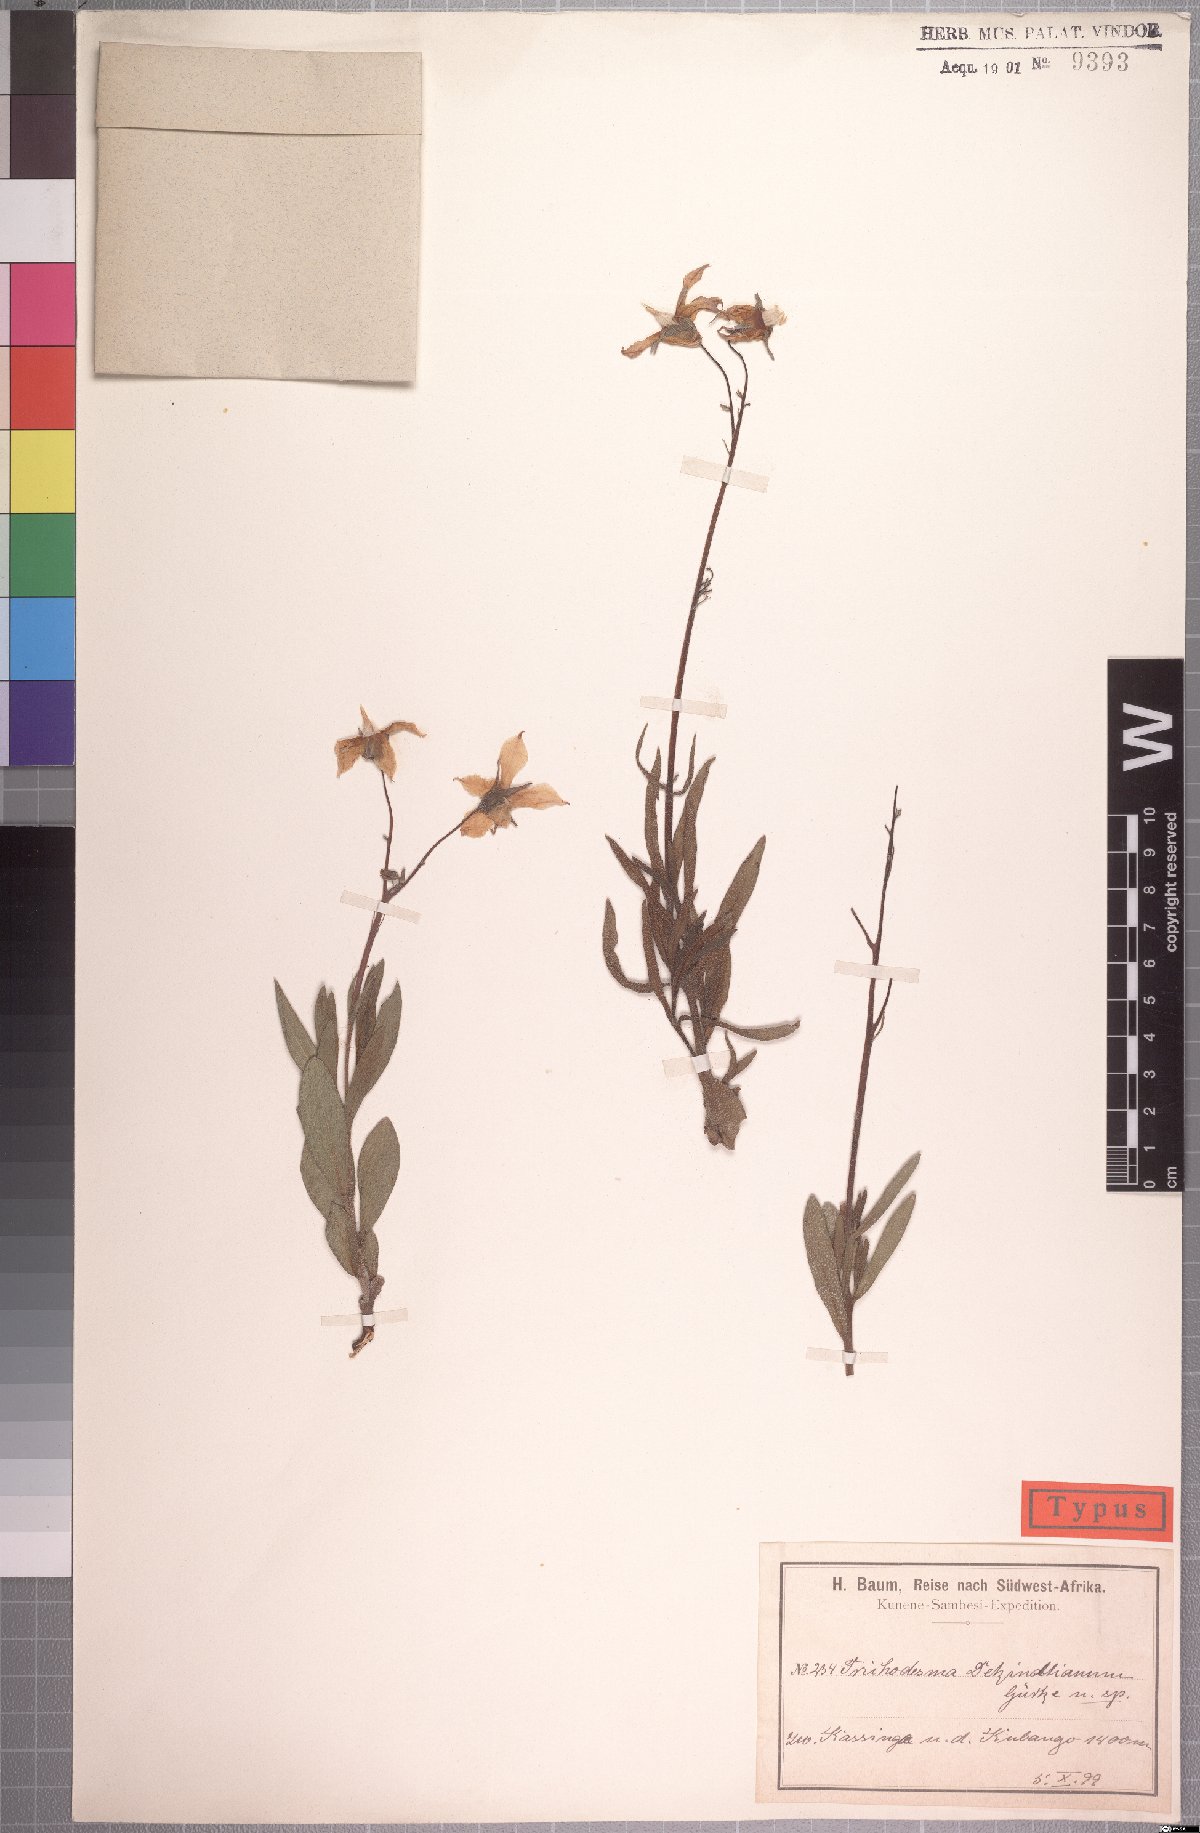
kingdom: Plantae
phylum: Tracheophyta
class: Magnoliopsida
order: Boraginales
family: Boraginaceae
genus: Trichodesma
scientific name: Trichodesma ambacense
